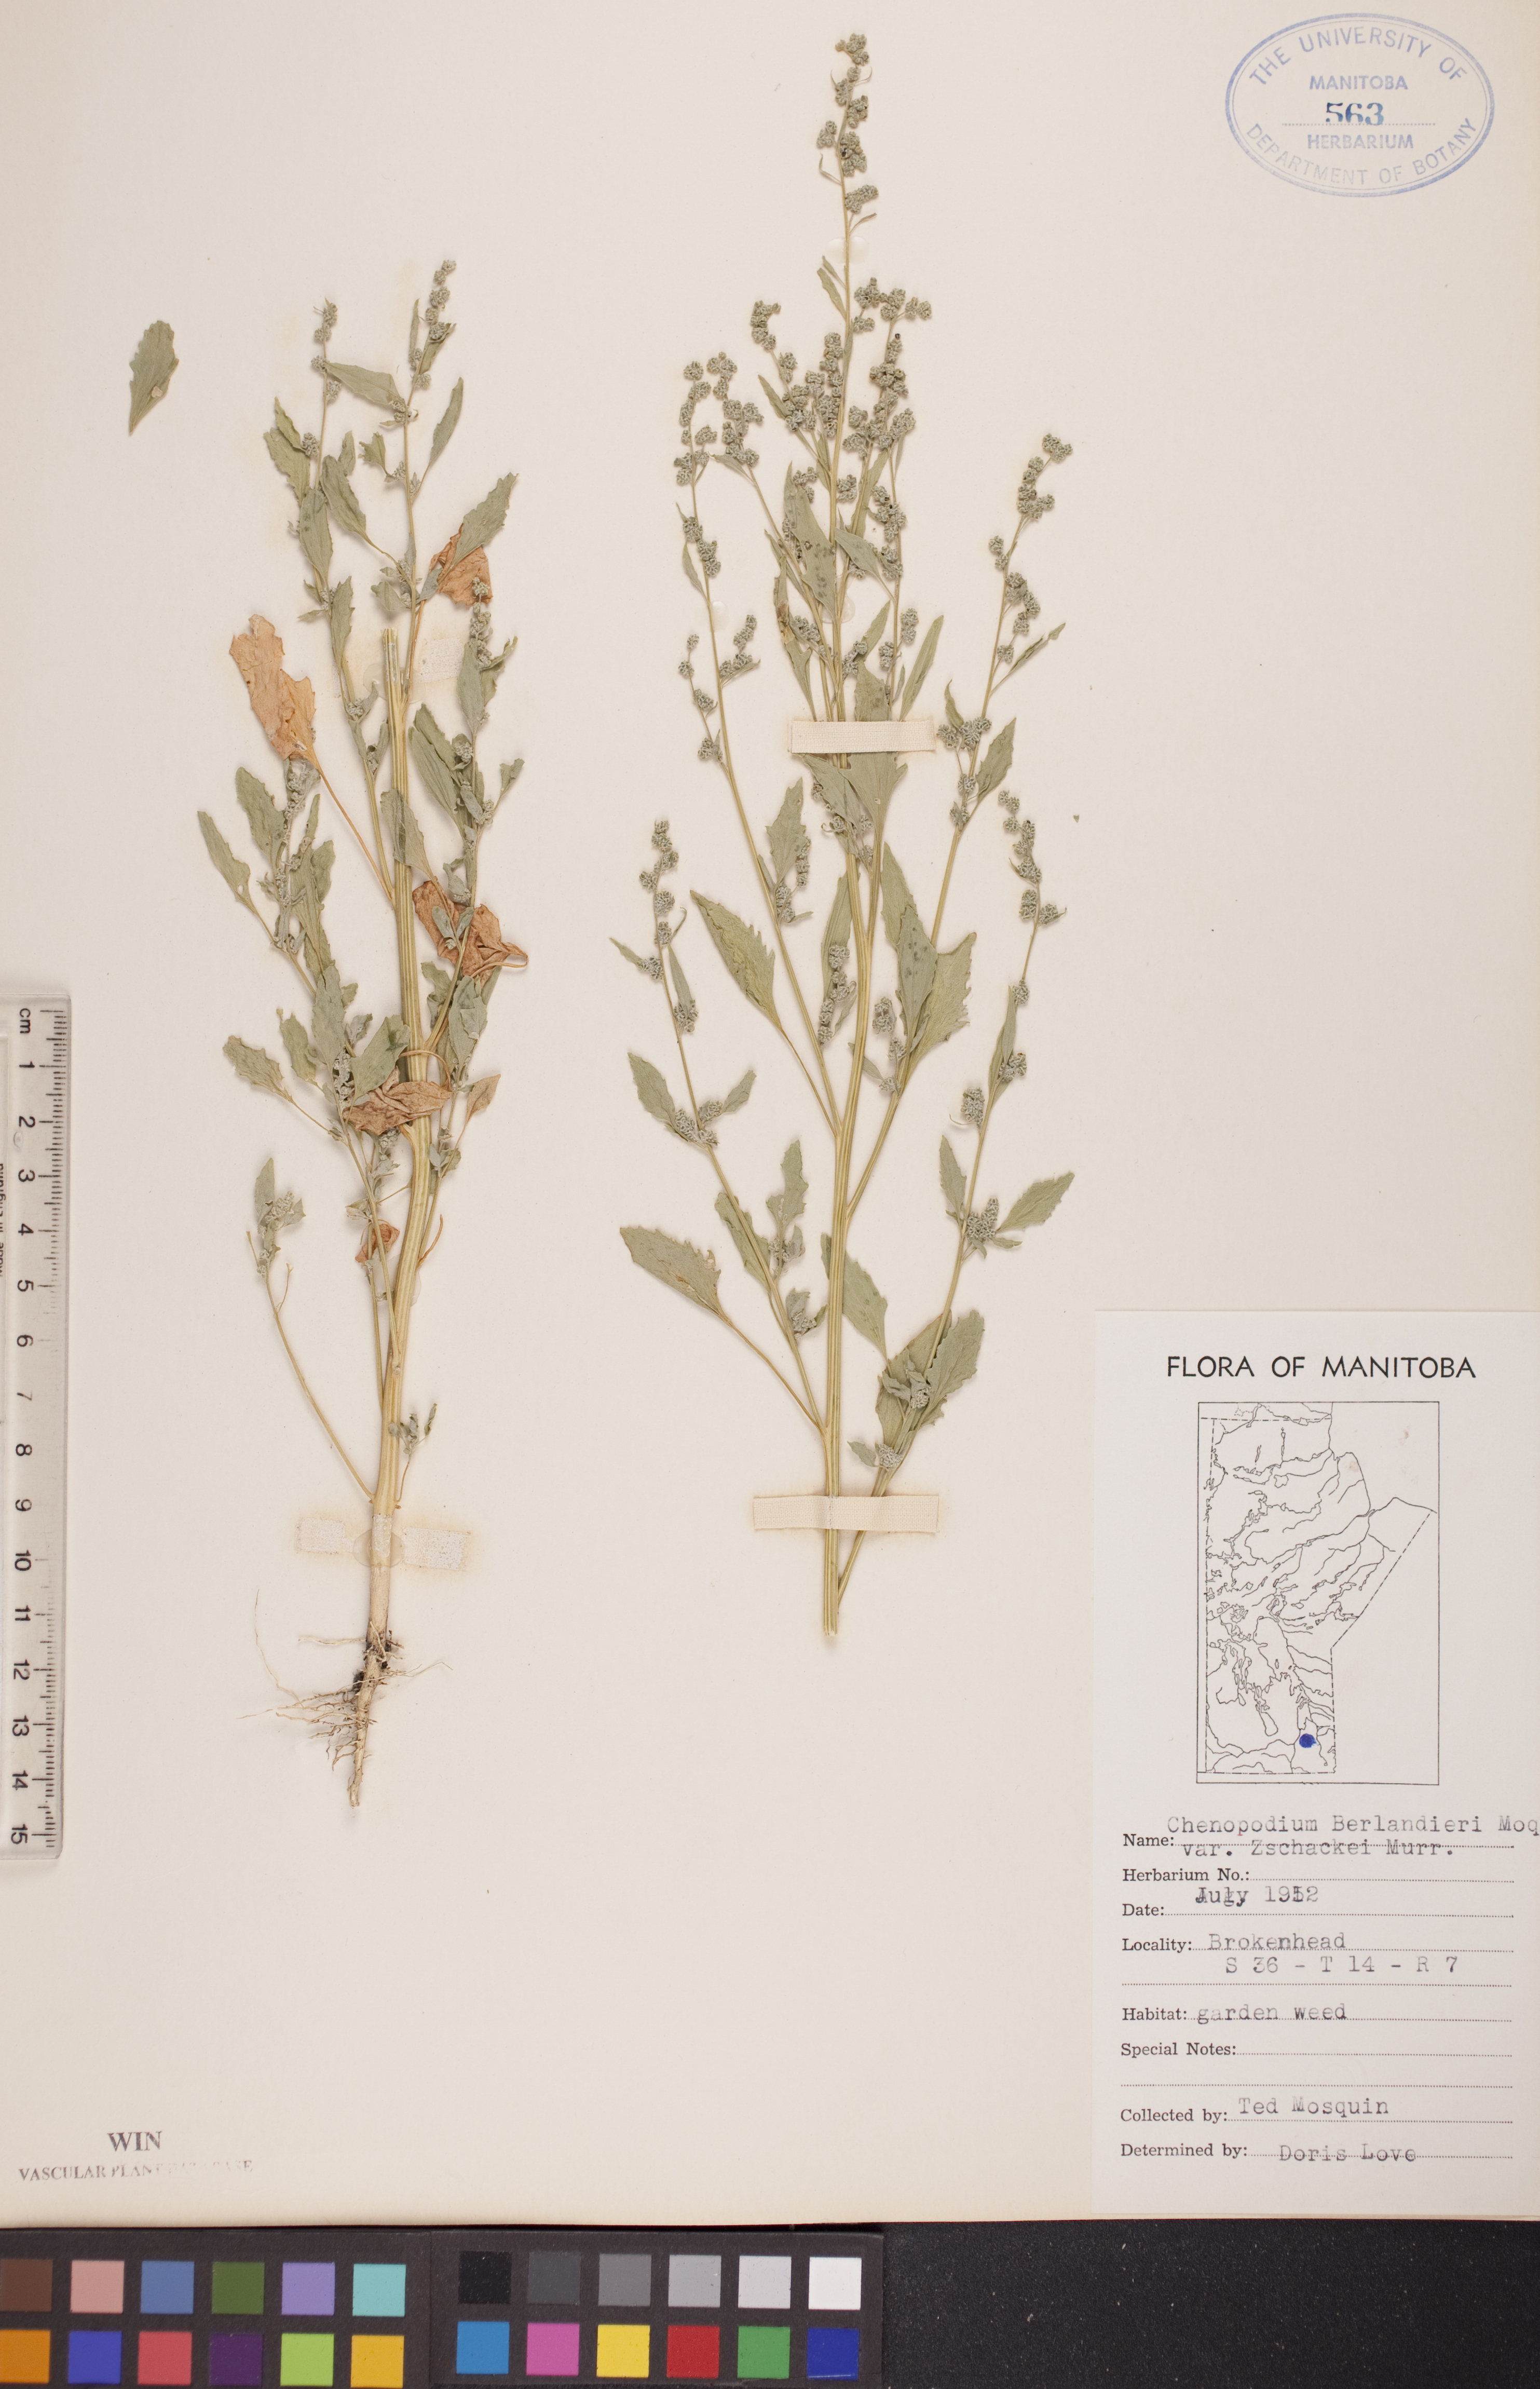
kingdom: Plantae
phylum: Tracheophyta
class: Magnoliopsida
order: Caryophyllales
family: Amaranthaceae
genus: Chenopodium
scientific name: Chenopodium berlandieri
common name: Pit-seed goosefoot
